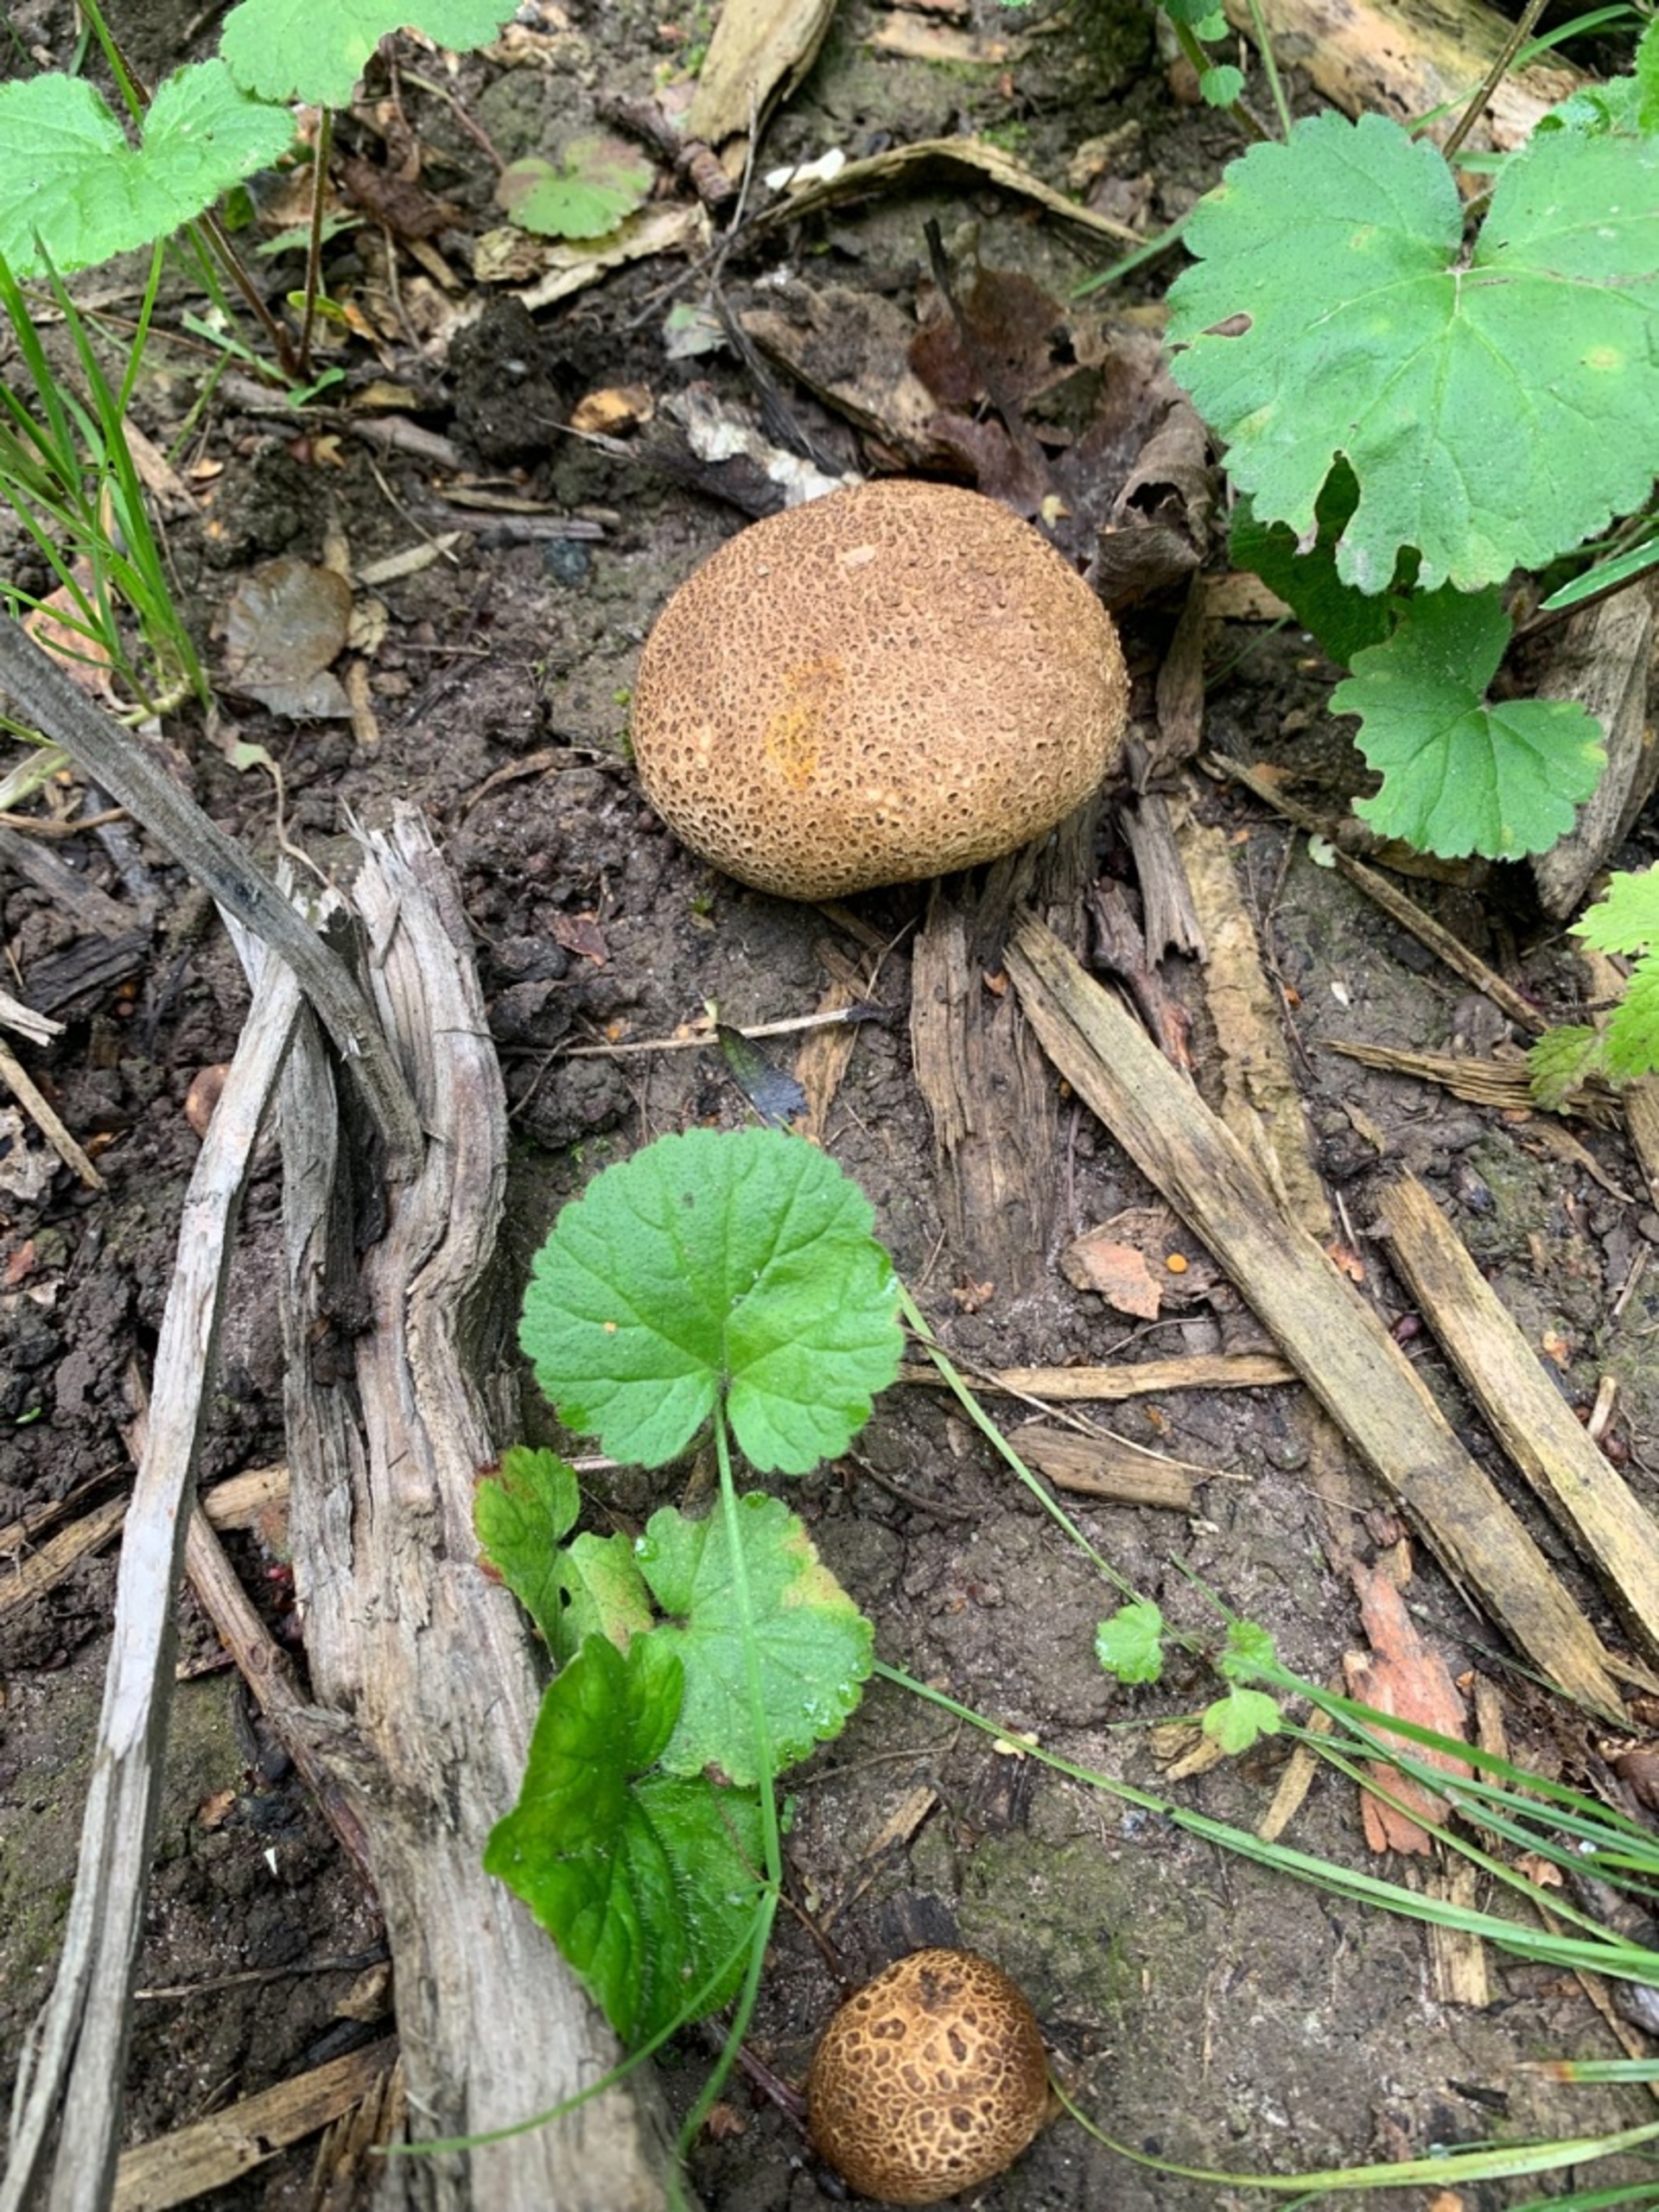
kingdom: Fungi
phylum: Basidiomycota
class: Agaricomycetes
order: Boletales
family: Sclerodermataceae
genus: Scleroderma
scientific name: Scleroderma
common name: Bruskbold
